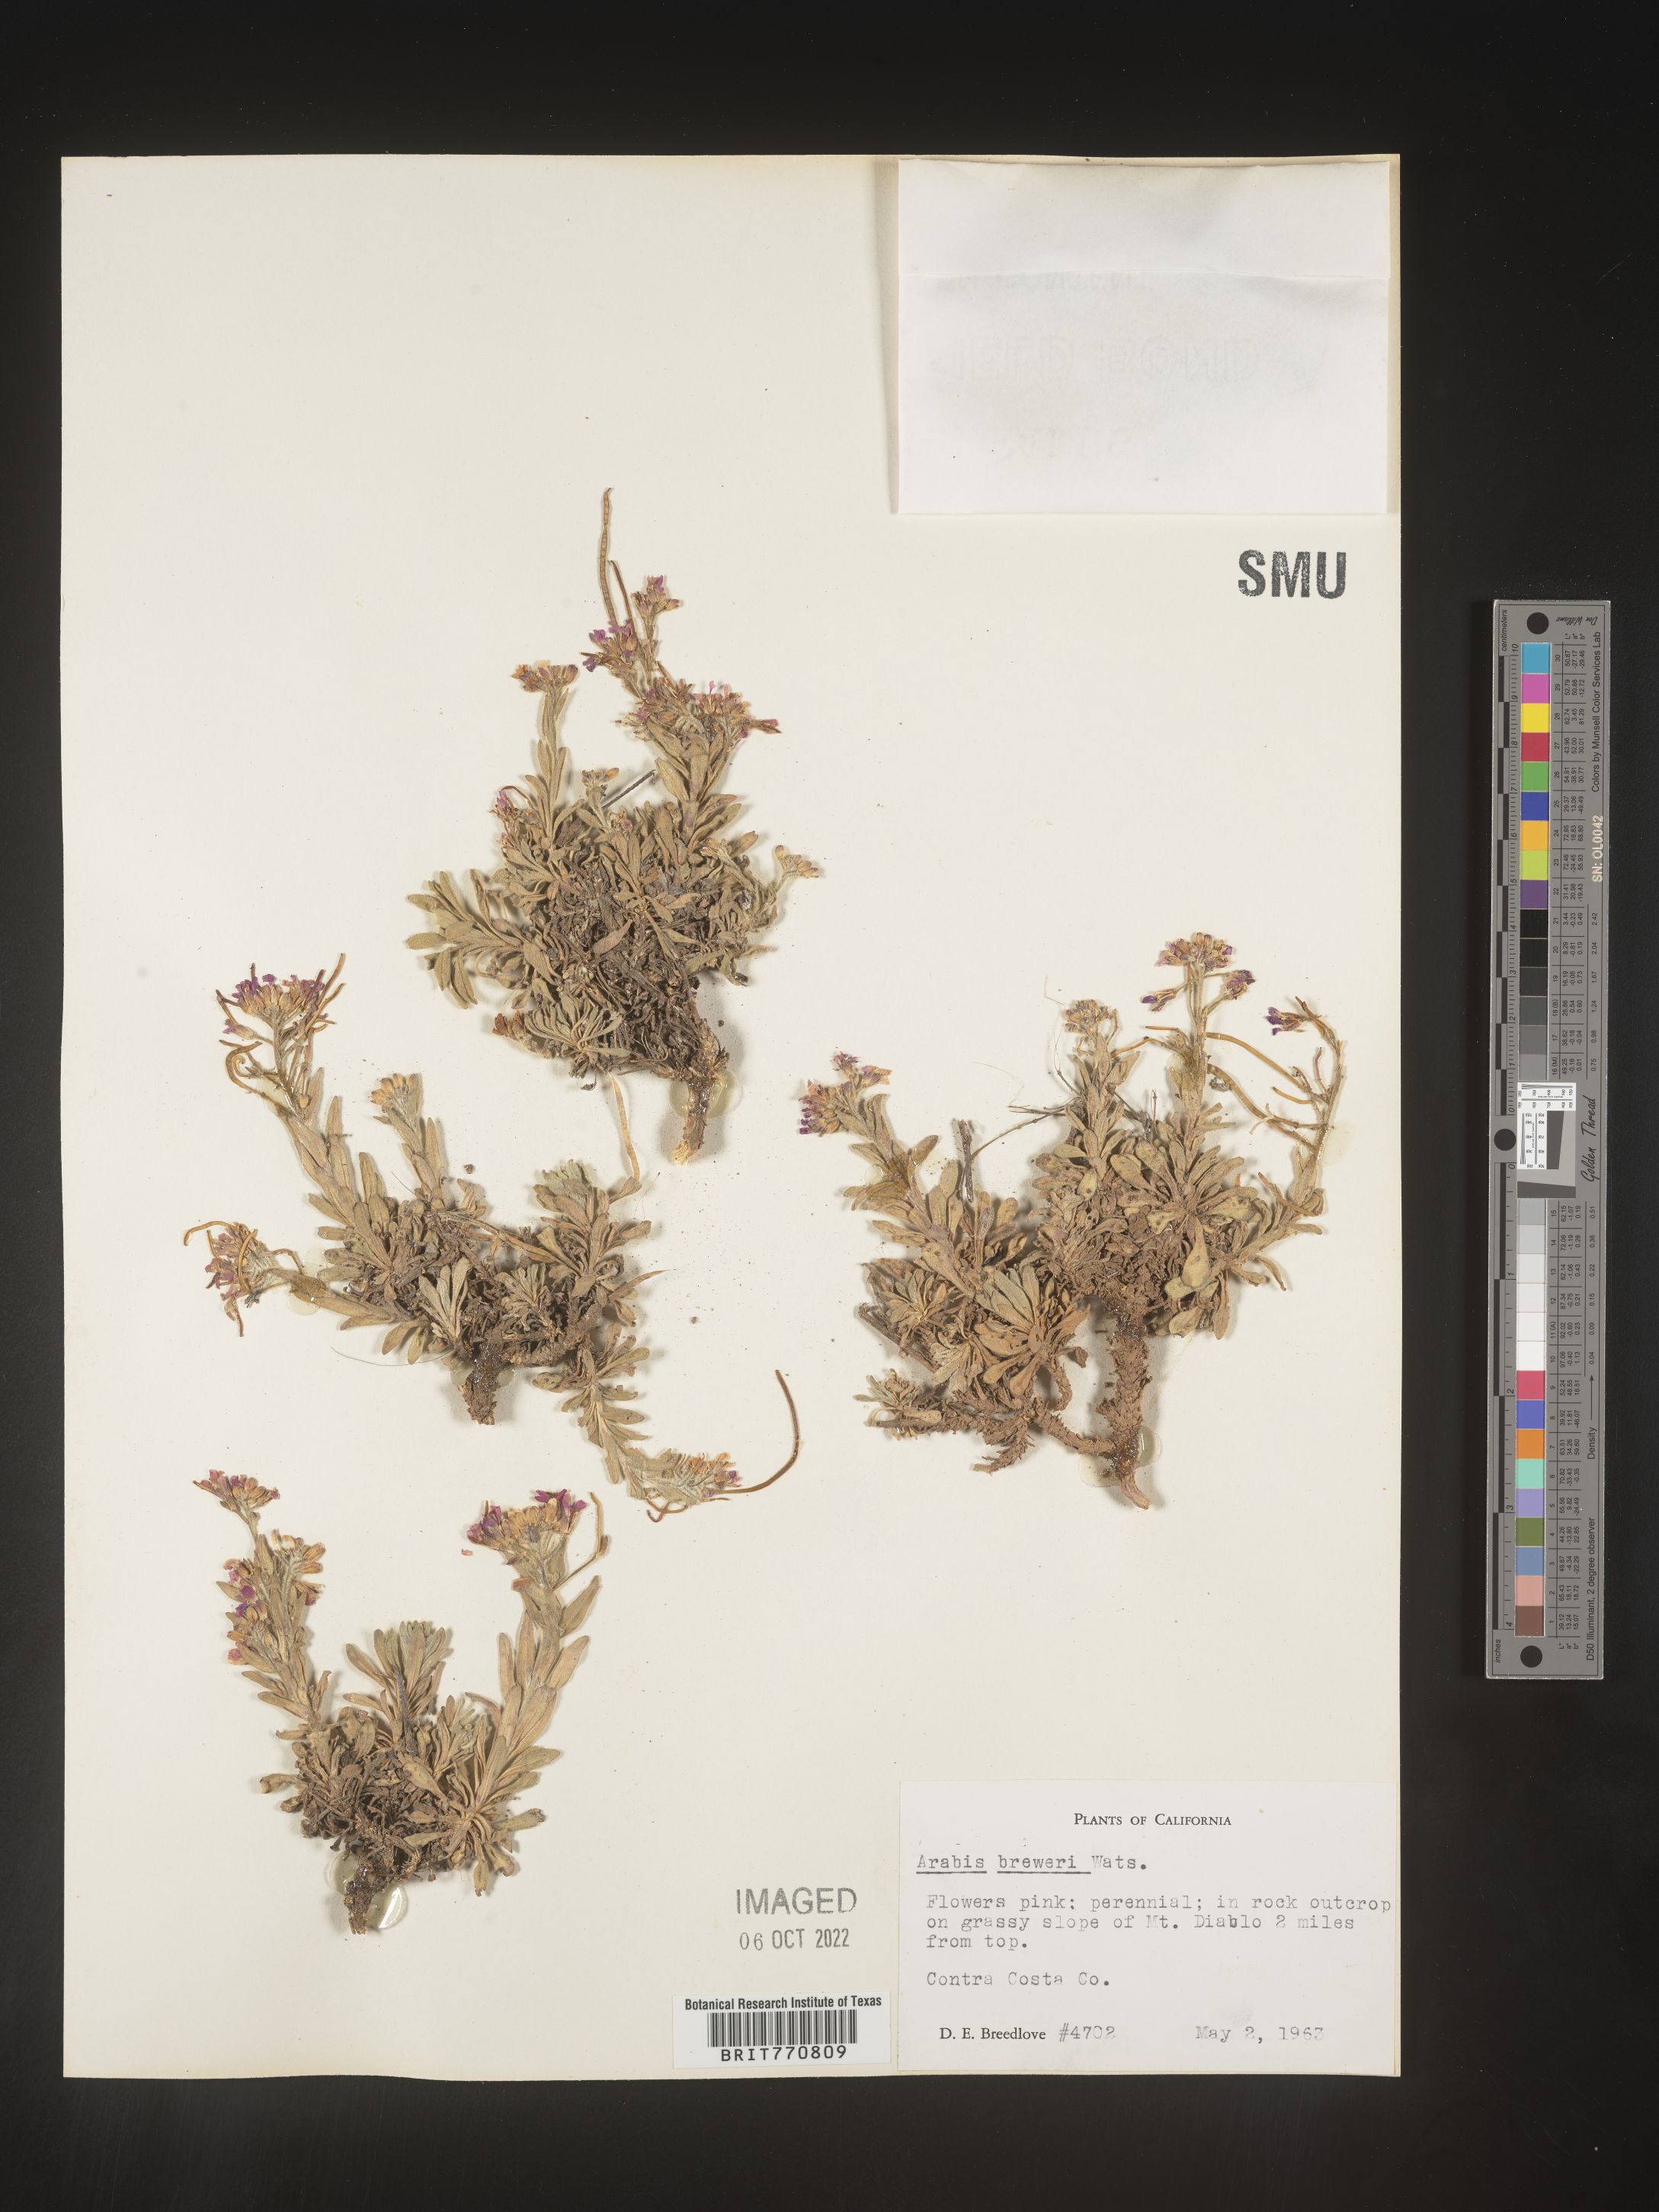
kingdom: Plantae
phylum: Tracheophyta
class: Magnoliopsida
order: Brassicales
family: Brassicaceae
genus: Arabis
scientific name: Arabis
